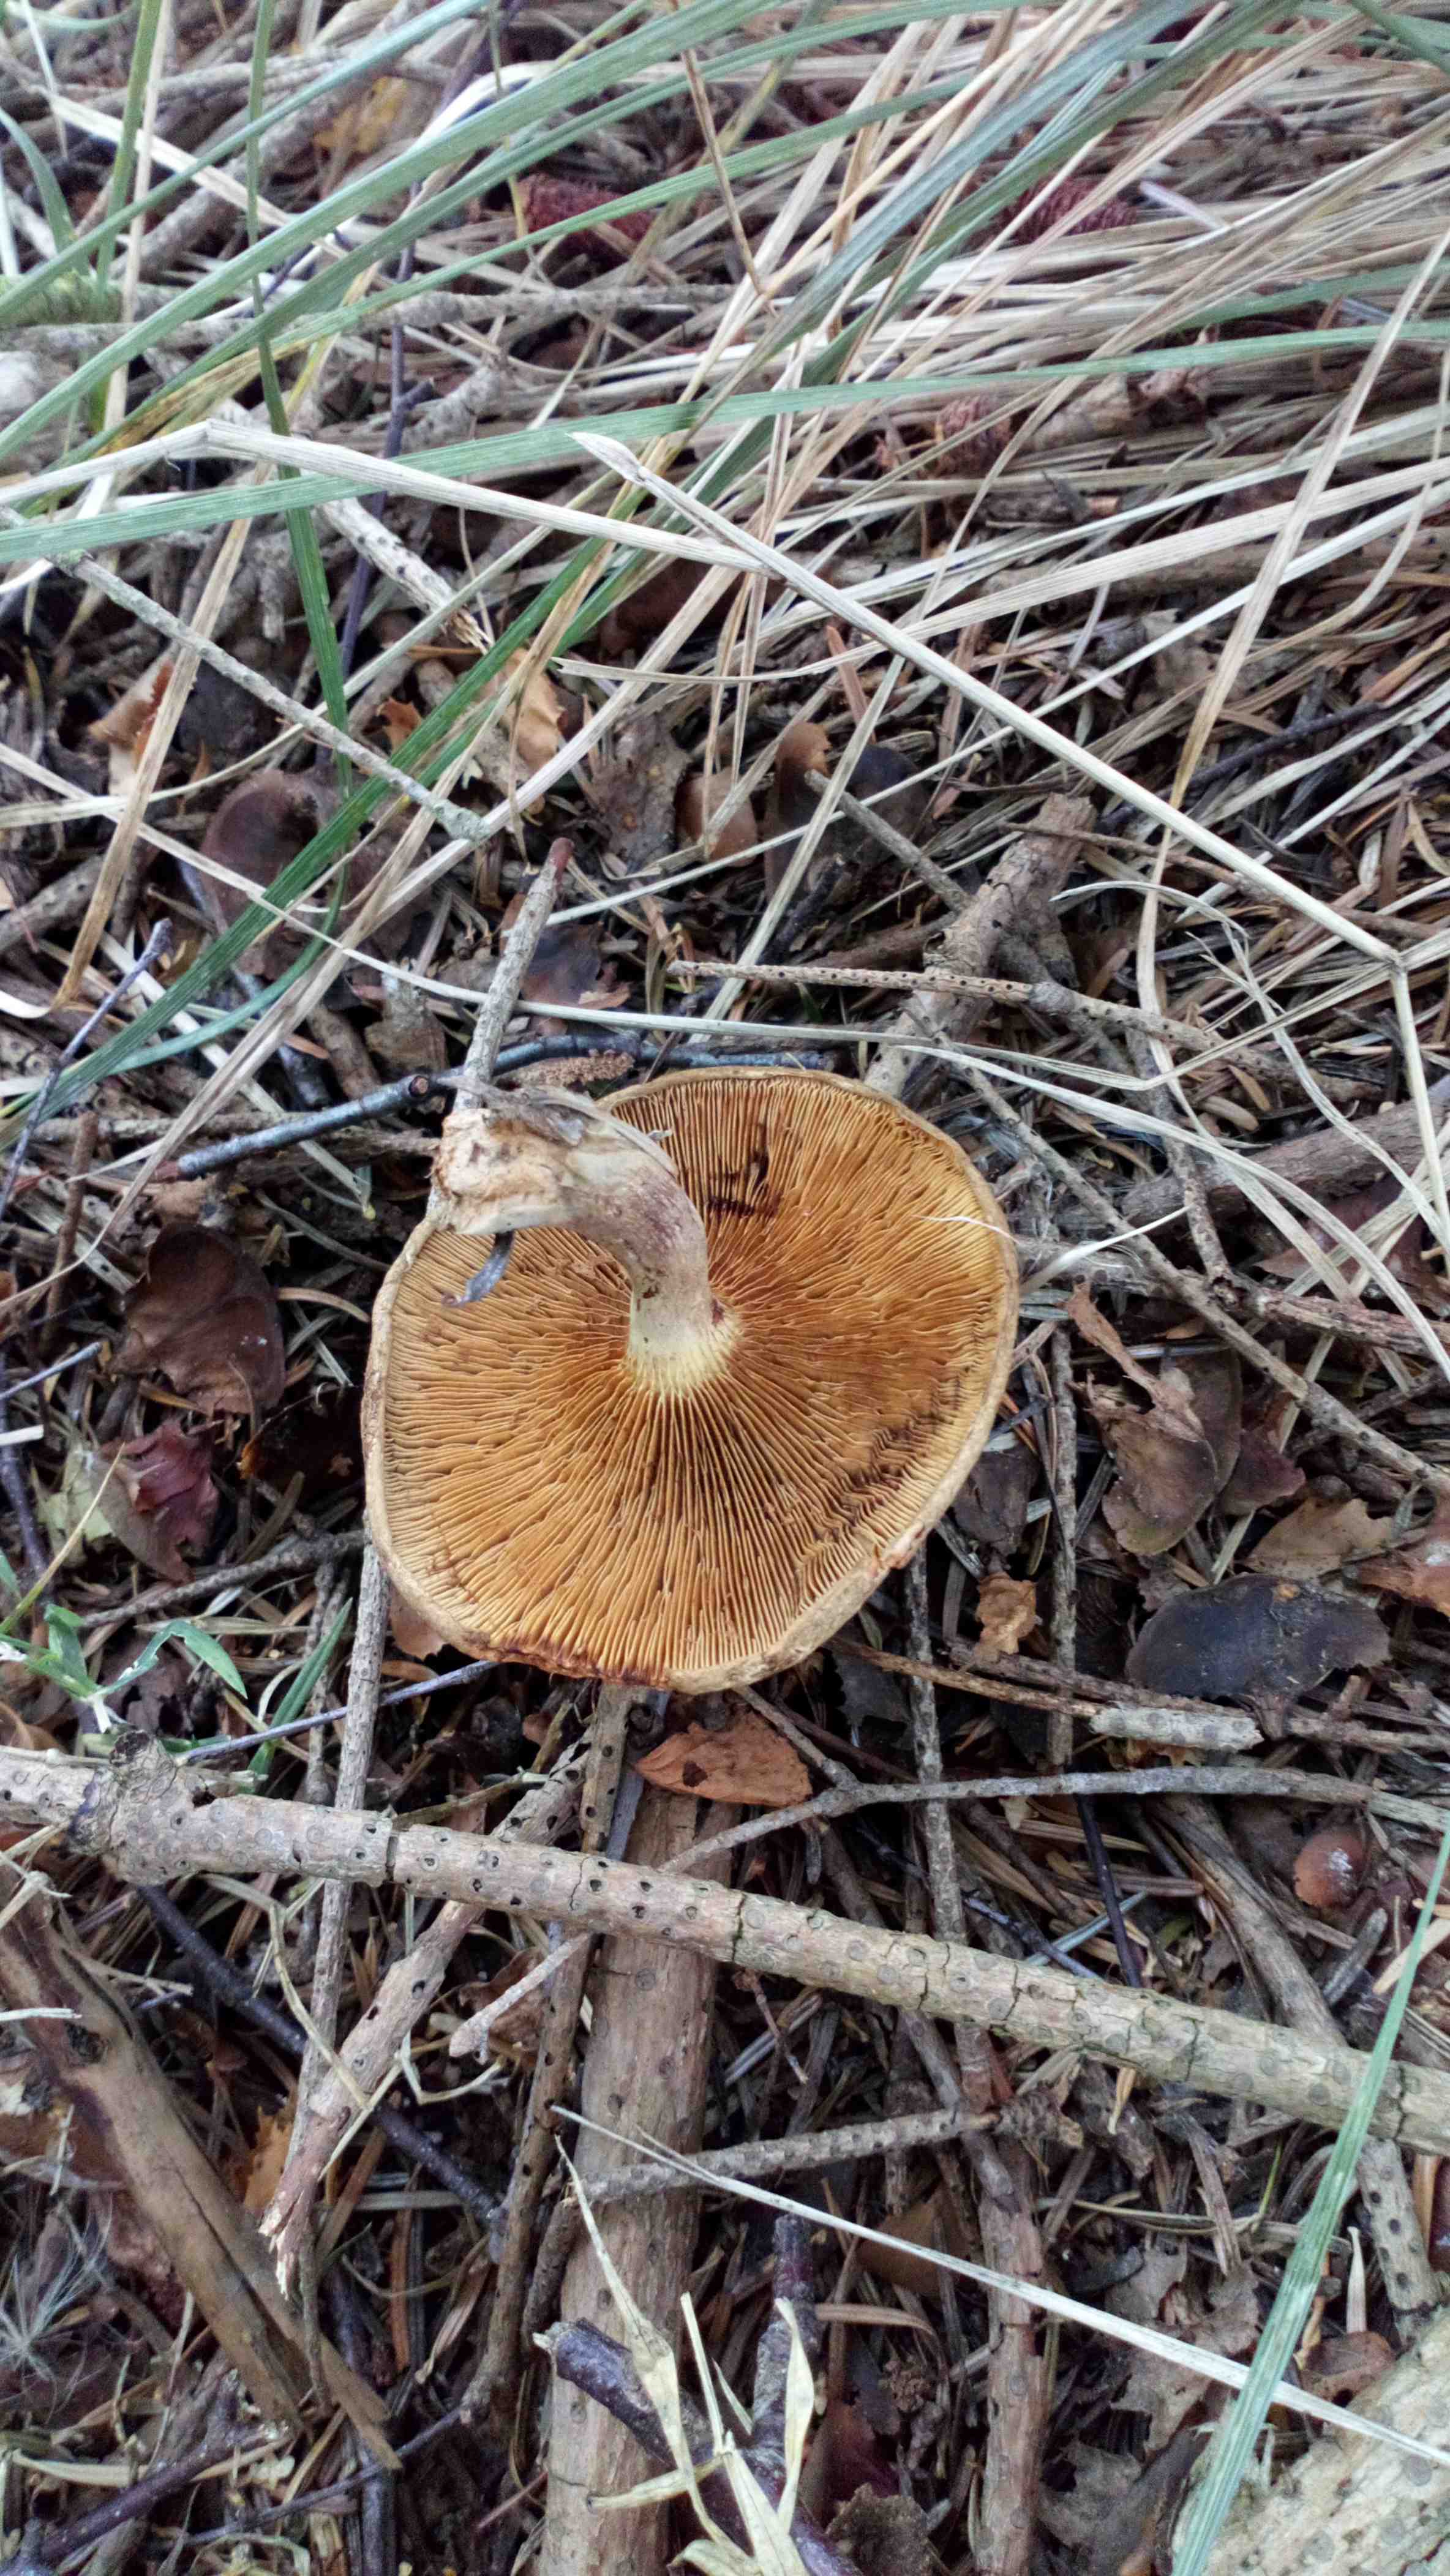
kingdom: Fungi
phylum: Basidiomycota
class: Agaricomycetes
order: Boletales
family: Paxillaceae
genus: Paxillus
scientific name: Paxillus involutus
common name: almindelig netbladhat
